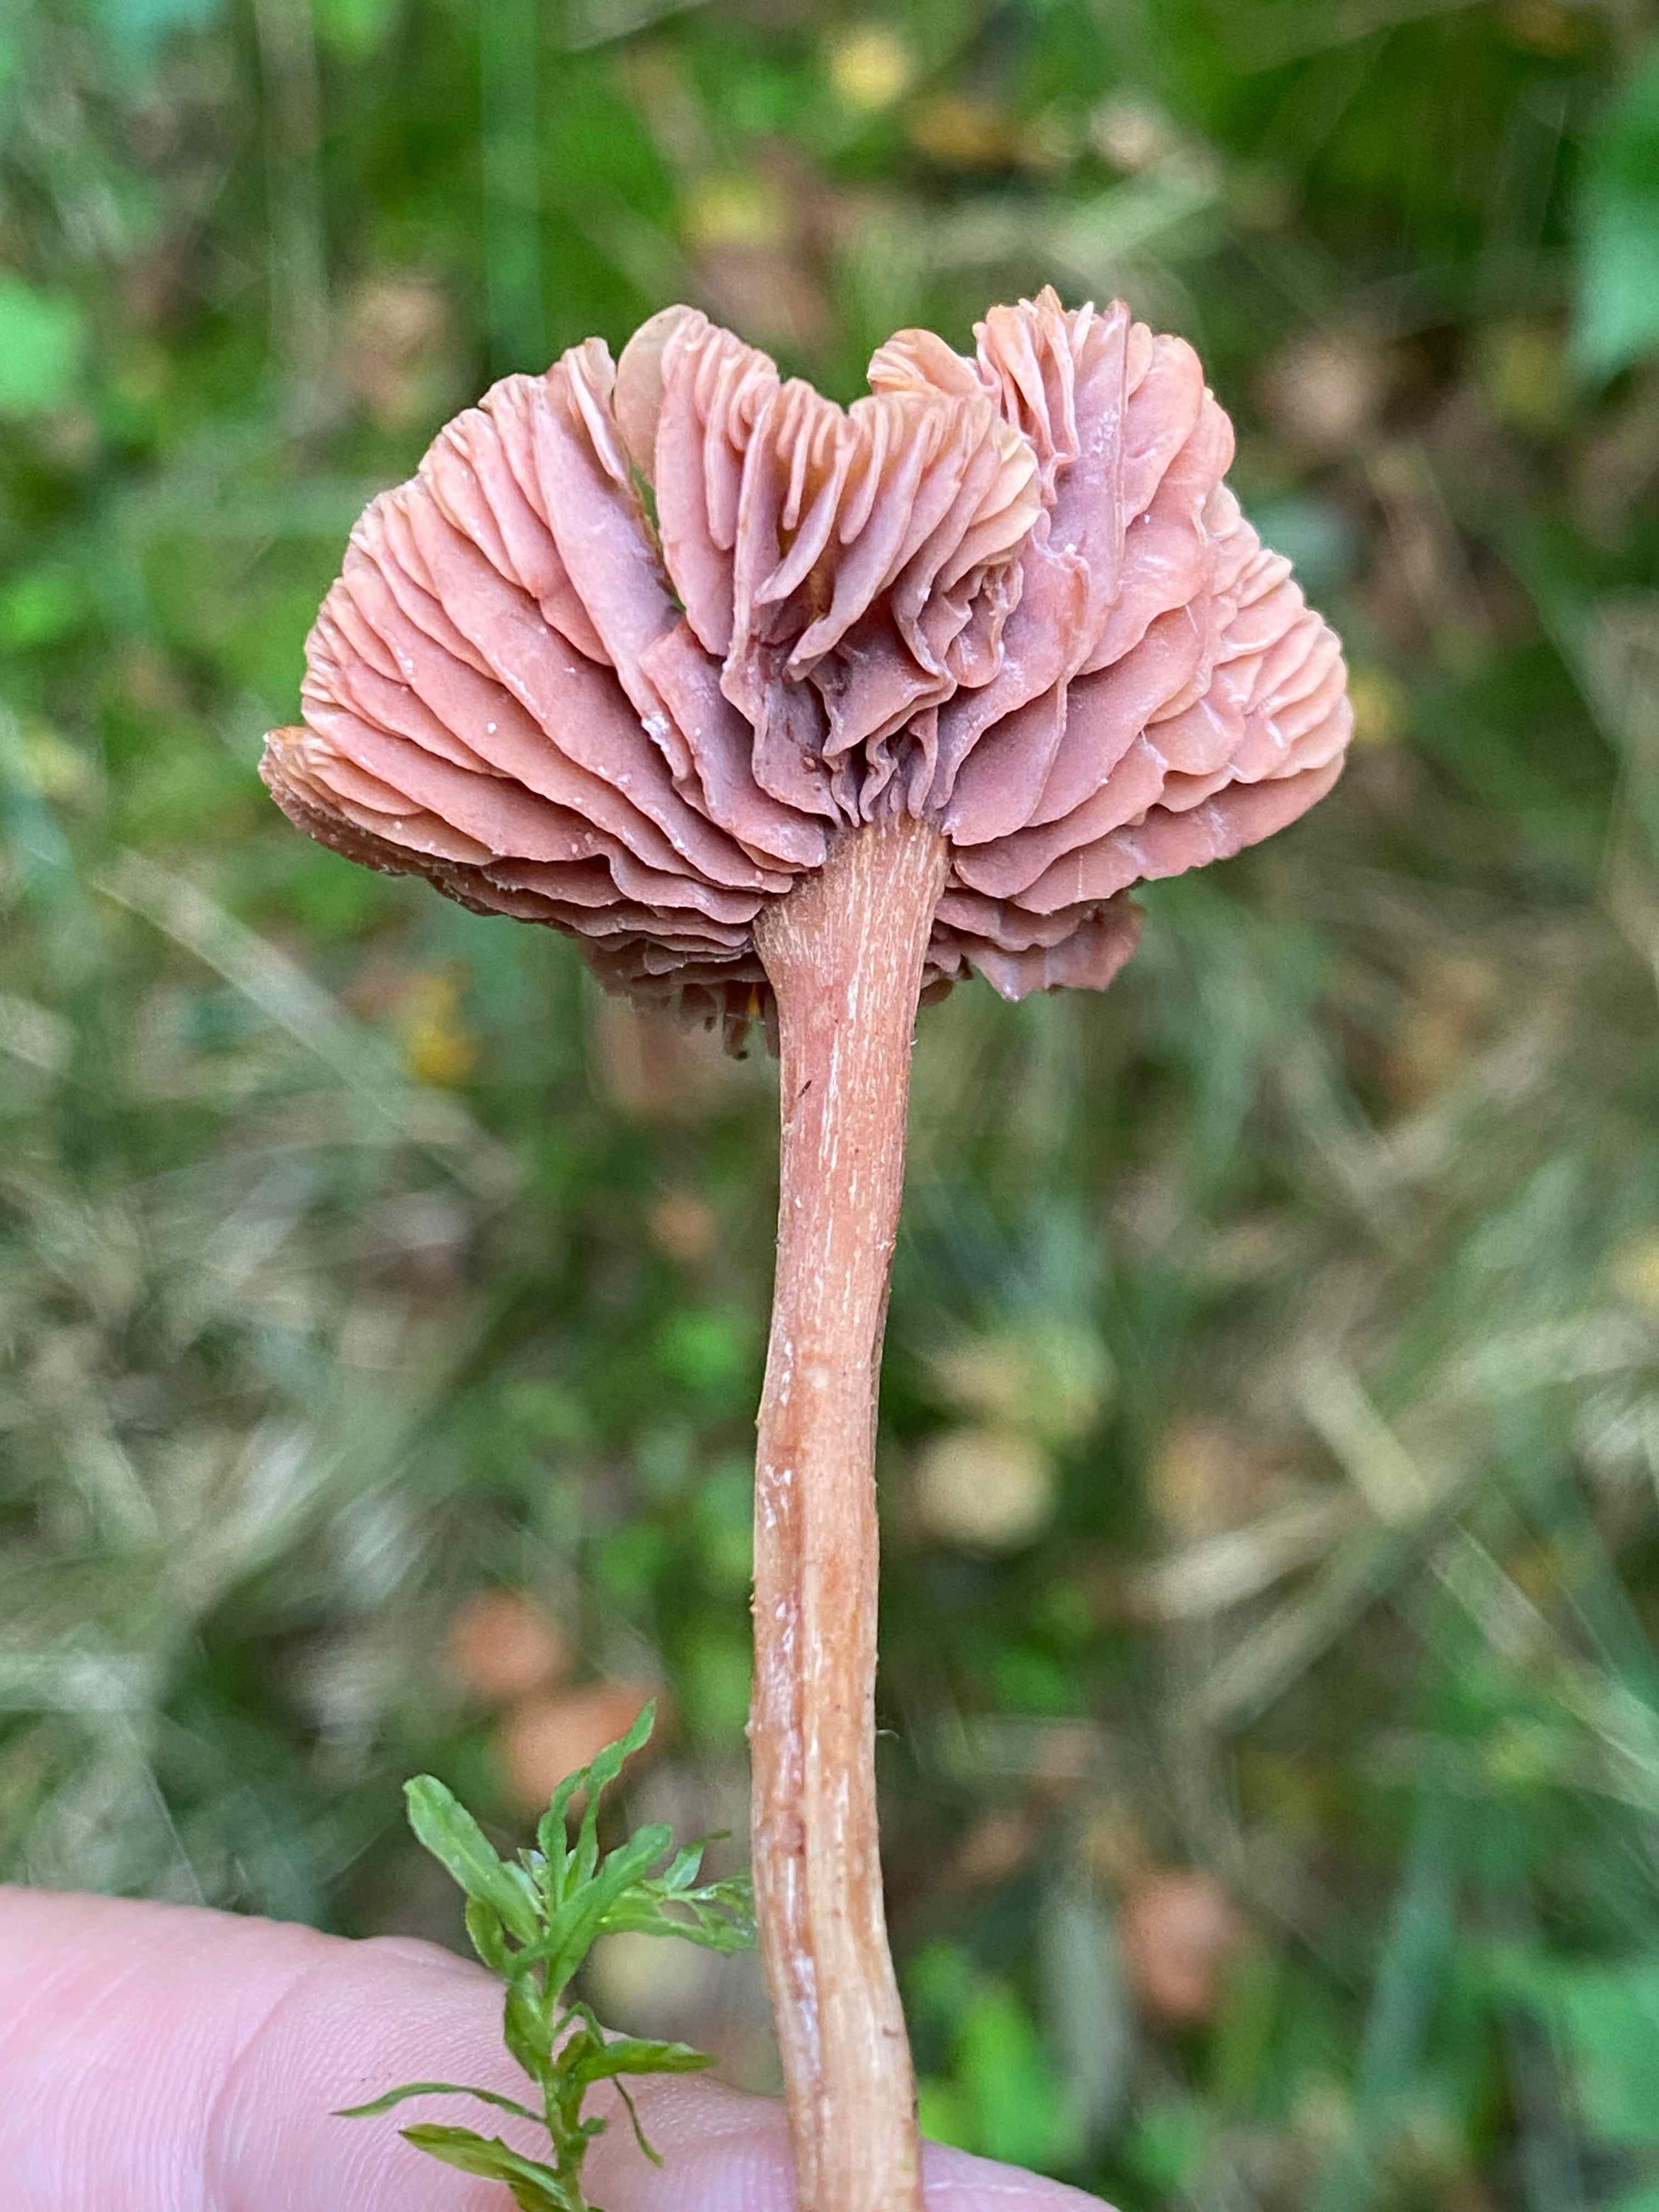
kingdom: Fungi
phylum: Basidiomycota
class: Agaricomycetes
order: Agaricales
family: Hydnangiaceae
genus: Laccaria
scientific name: Laccaria laccata
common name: rød ametysthat
